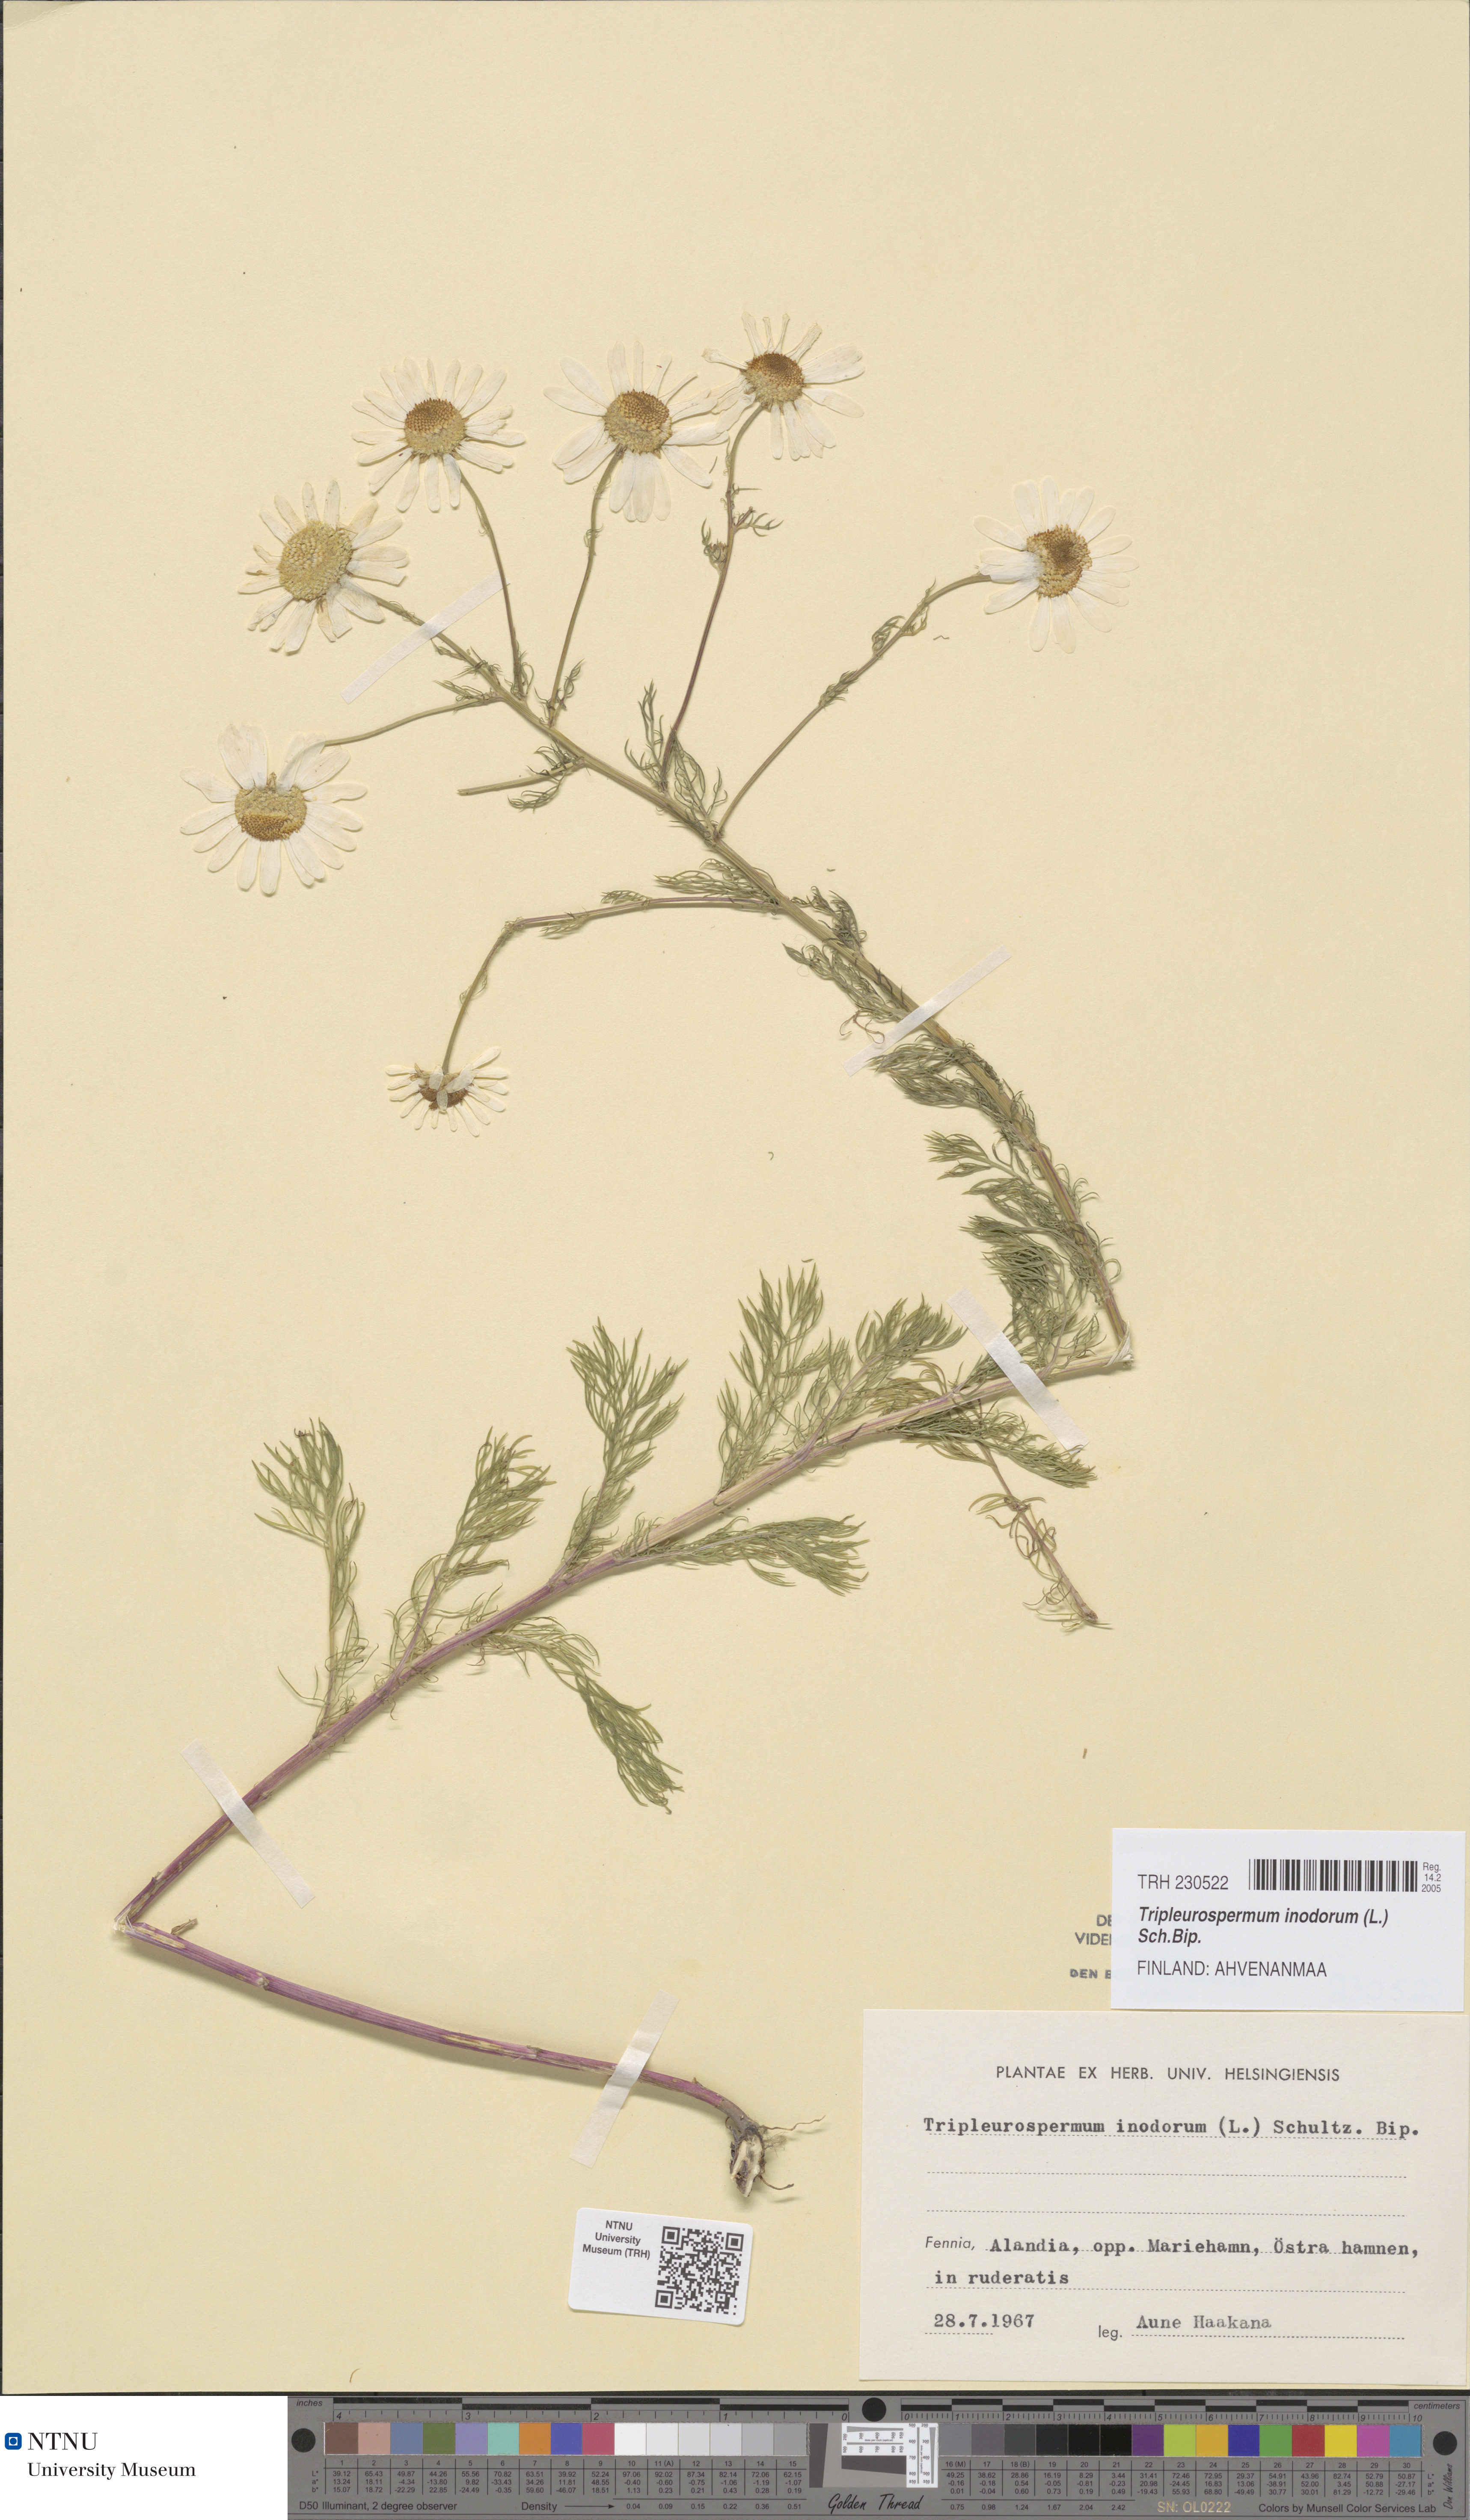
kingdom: Plantae
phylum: Tracheophyta
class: Magnoliopsida
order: Asterales
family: Asteraceae
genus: Tripleurospermum
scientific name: Tripleurospermum inodorum
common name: Scentless mayweed
